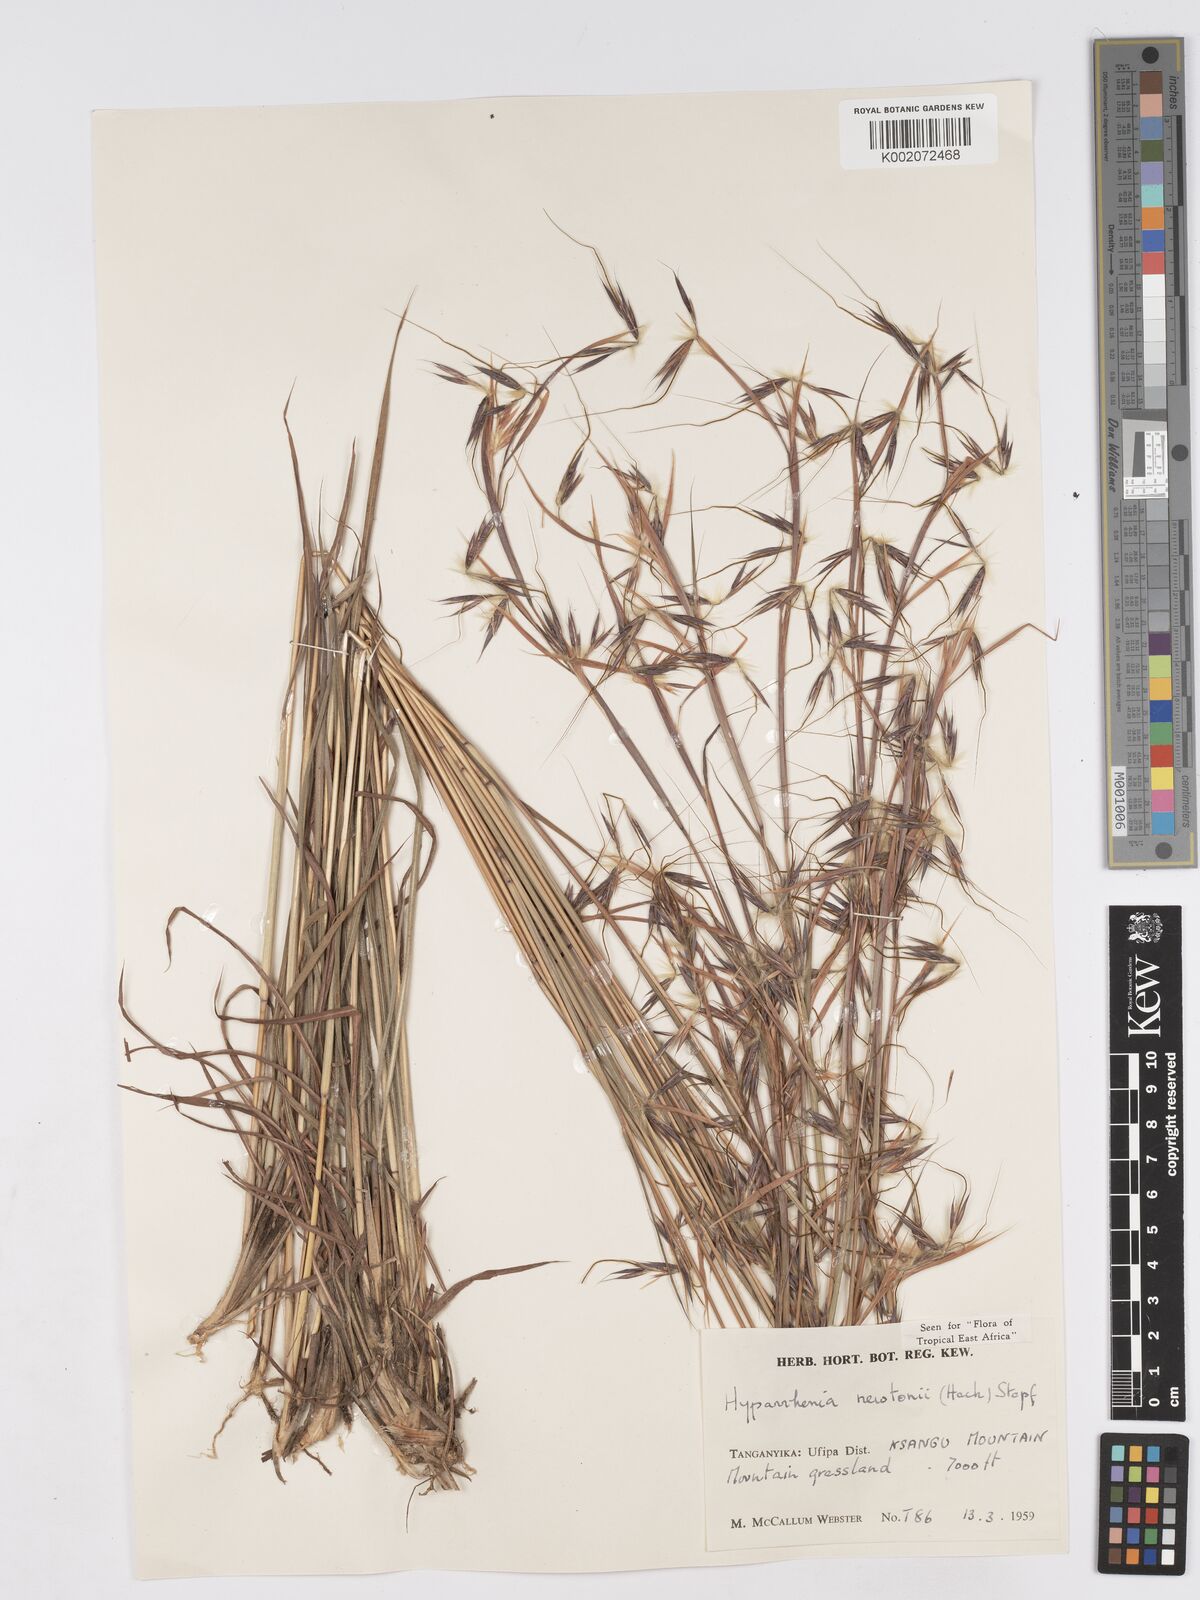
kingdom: Plantae
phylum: Tracheophyta
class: Liliopsida
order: Poales
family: Poaceae
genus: Hyparrhenia
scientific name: Hyparrhenia newtonii
